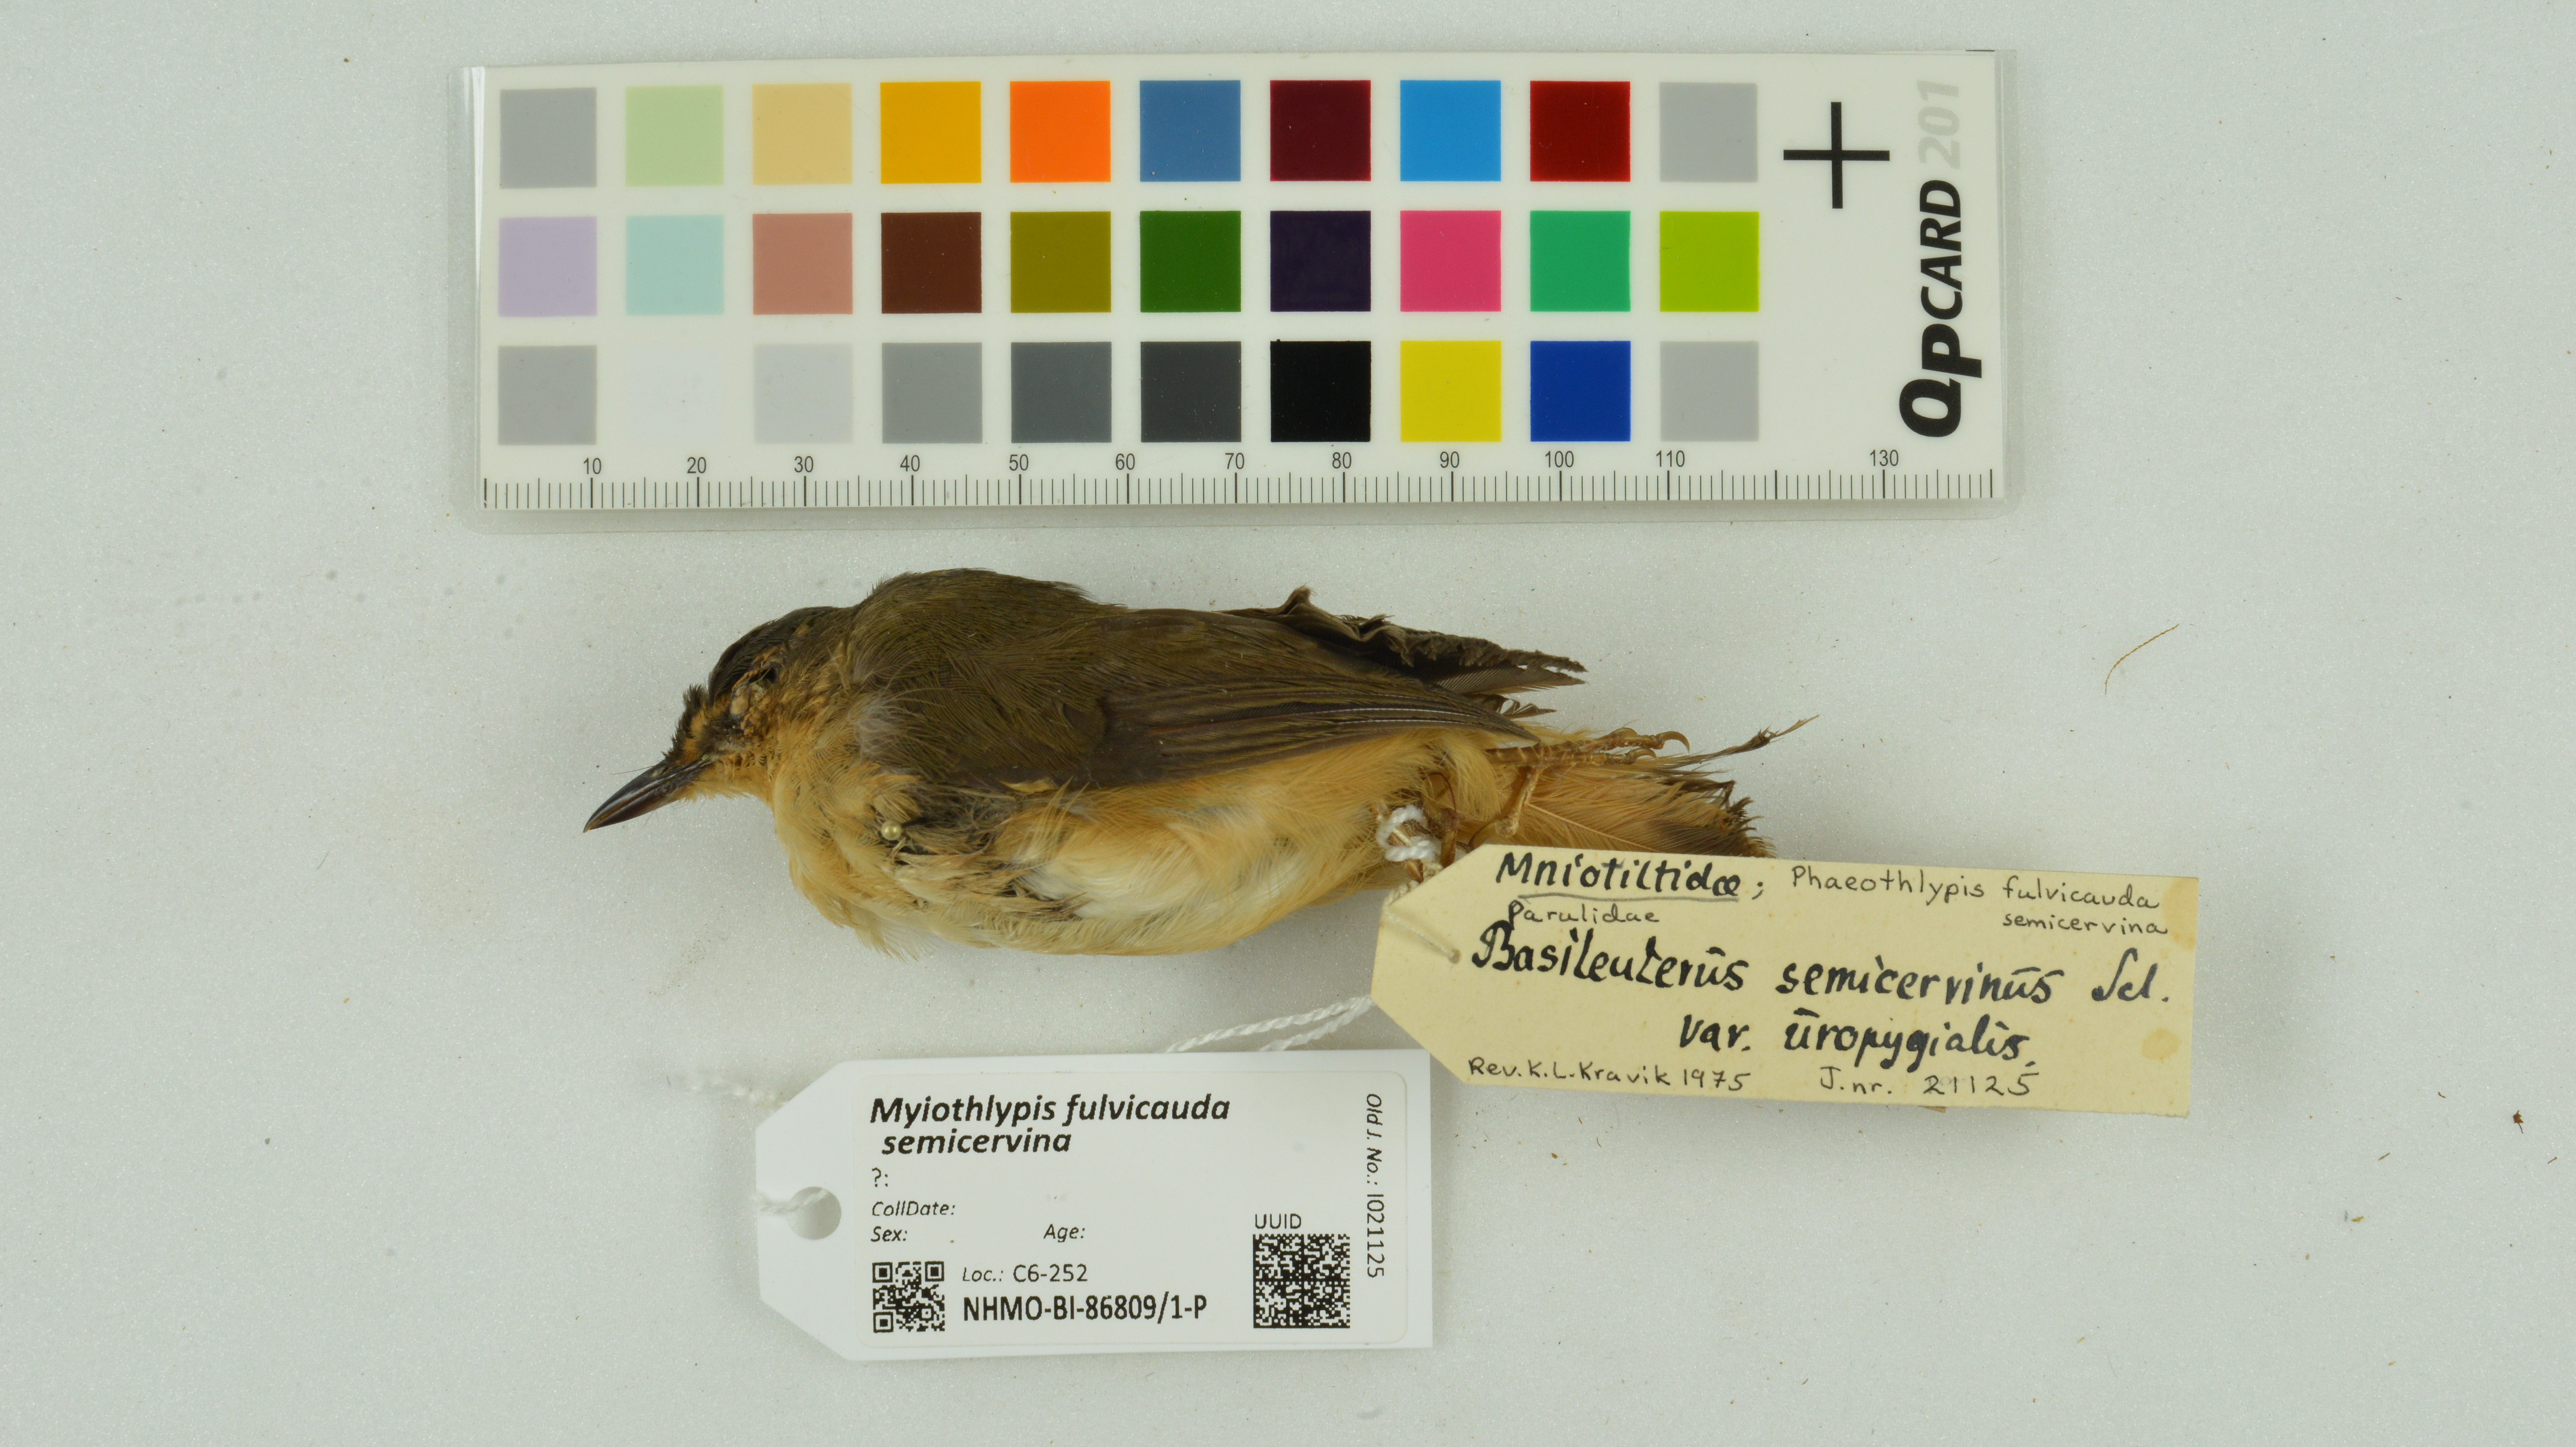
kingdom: Animalia
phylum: Chordata
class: Aves
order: Passeriformes
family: Parulidae
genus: Myiothlypis
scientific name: Myiothlypis fulvicauda
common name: Buff-rumped warbler
